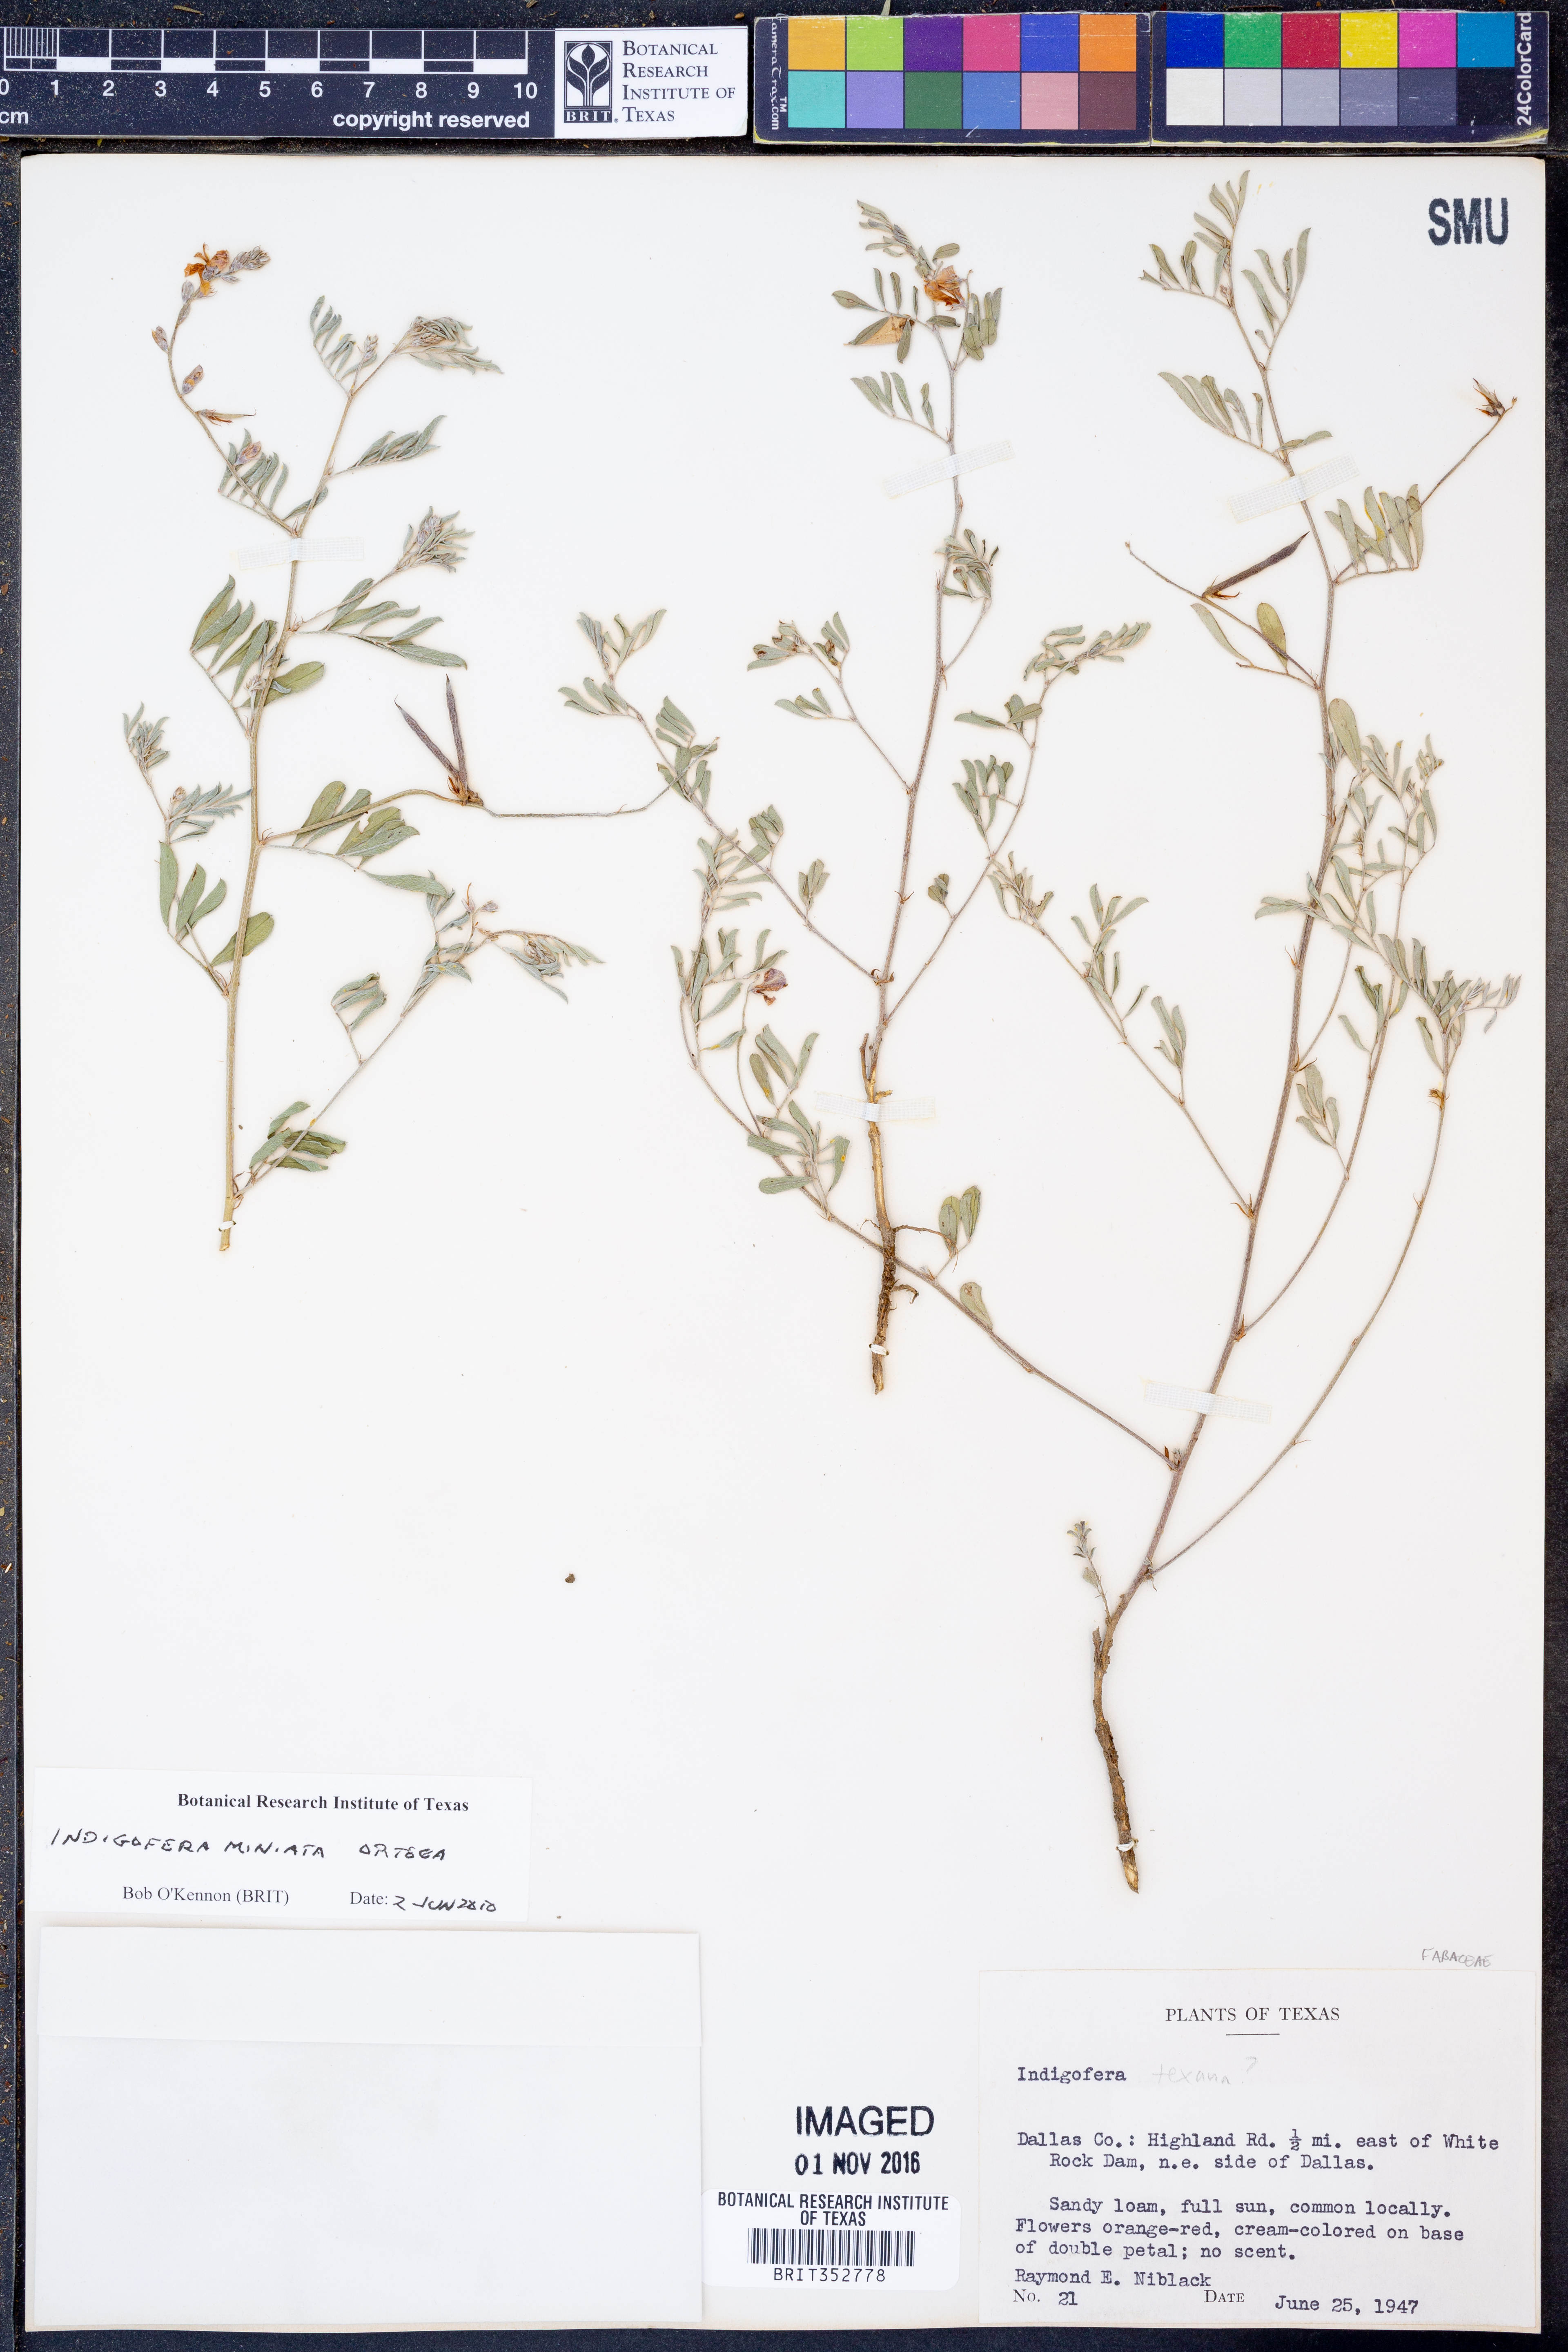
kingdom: Plantae
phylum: Tracheophyta
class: Magnoliopsida
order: Fabales
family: Fabaceae
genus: Indigofera
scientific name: Indigofera miniata
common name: Coast indigo
